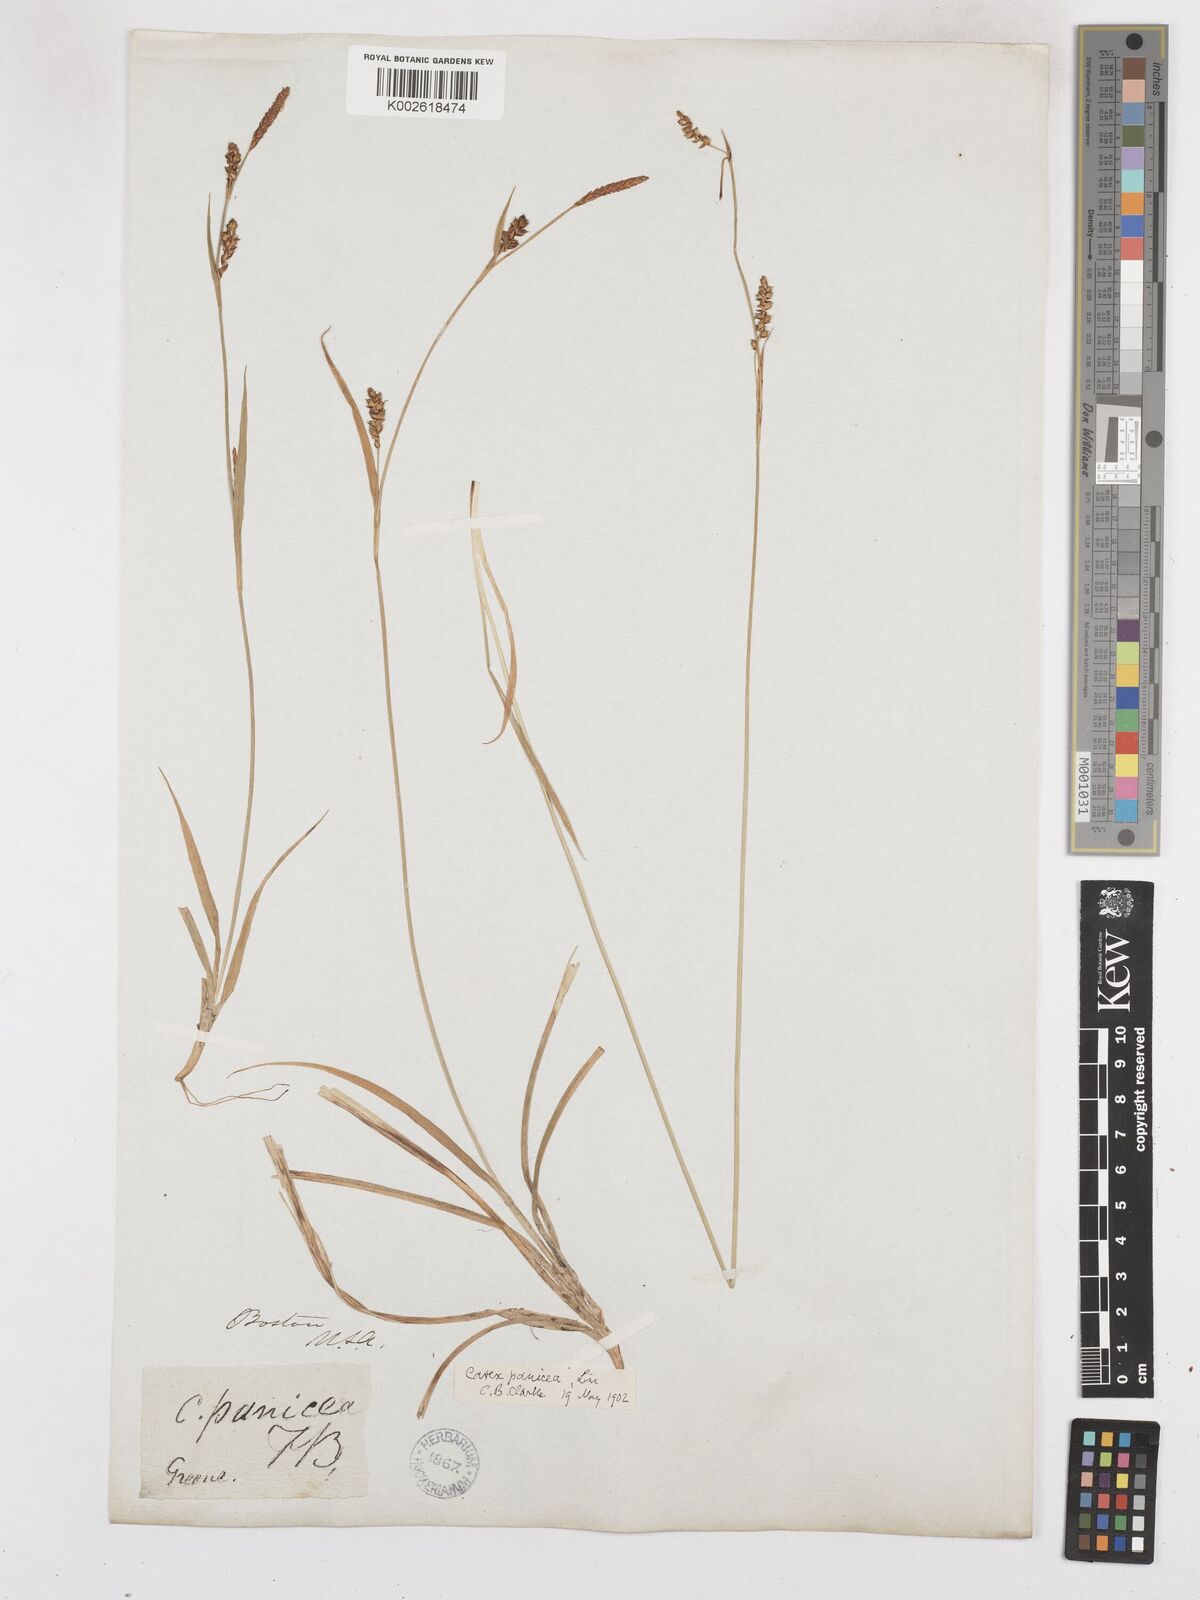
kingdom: Plantae
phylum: Tracheophyta
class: Liliopsida
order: Poales
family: Cyperaceae
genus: Carex
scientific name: Carex panicea
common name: Carnation sedge
